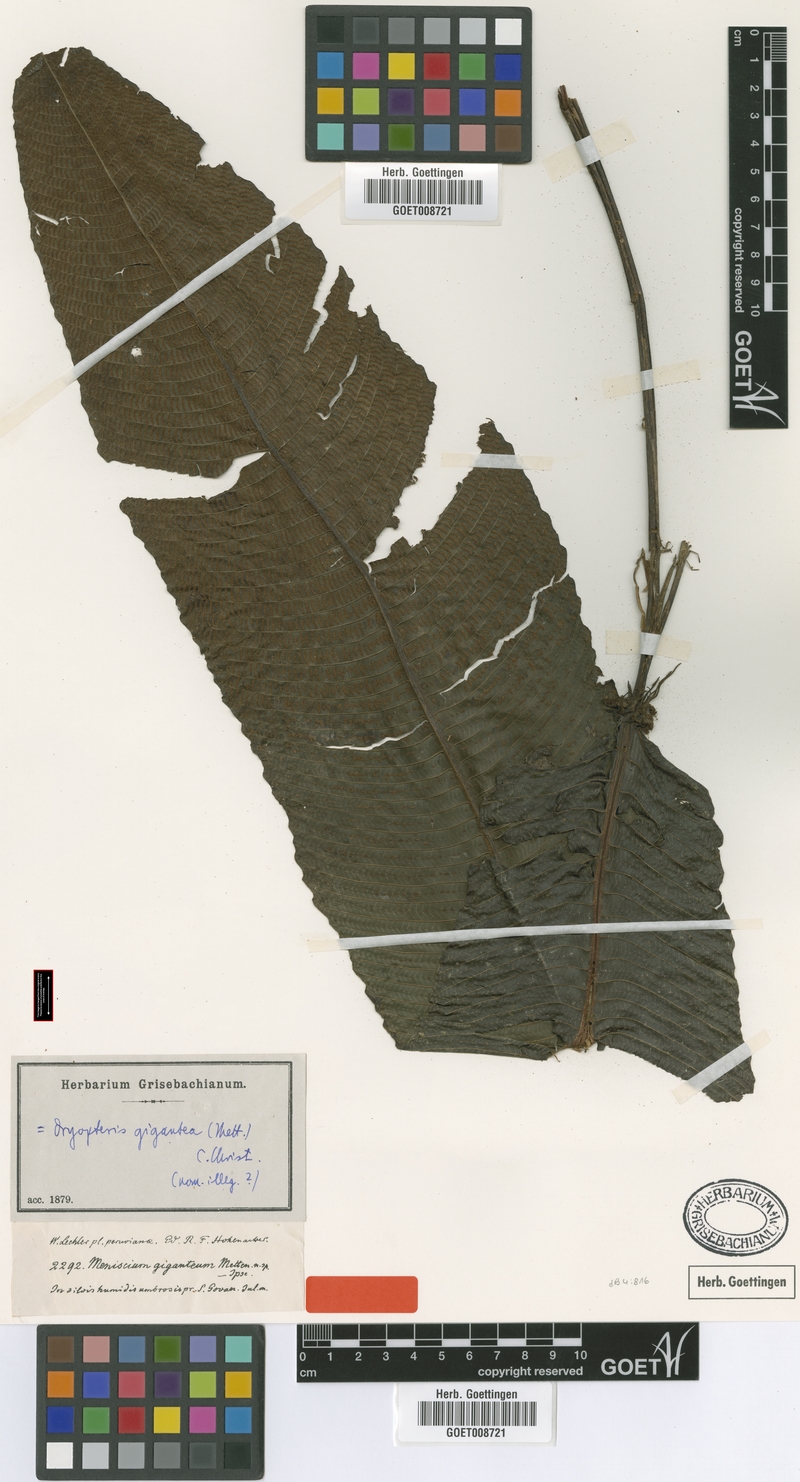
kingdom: Plantae
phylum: Tracheophyta
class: Polypodiopsida
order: Polypodiales
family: Thelypteridaceae
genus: Meniscium
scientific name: Meniscium giganteum
